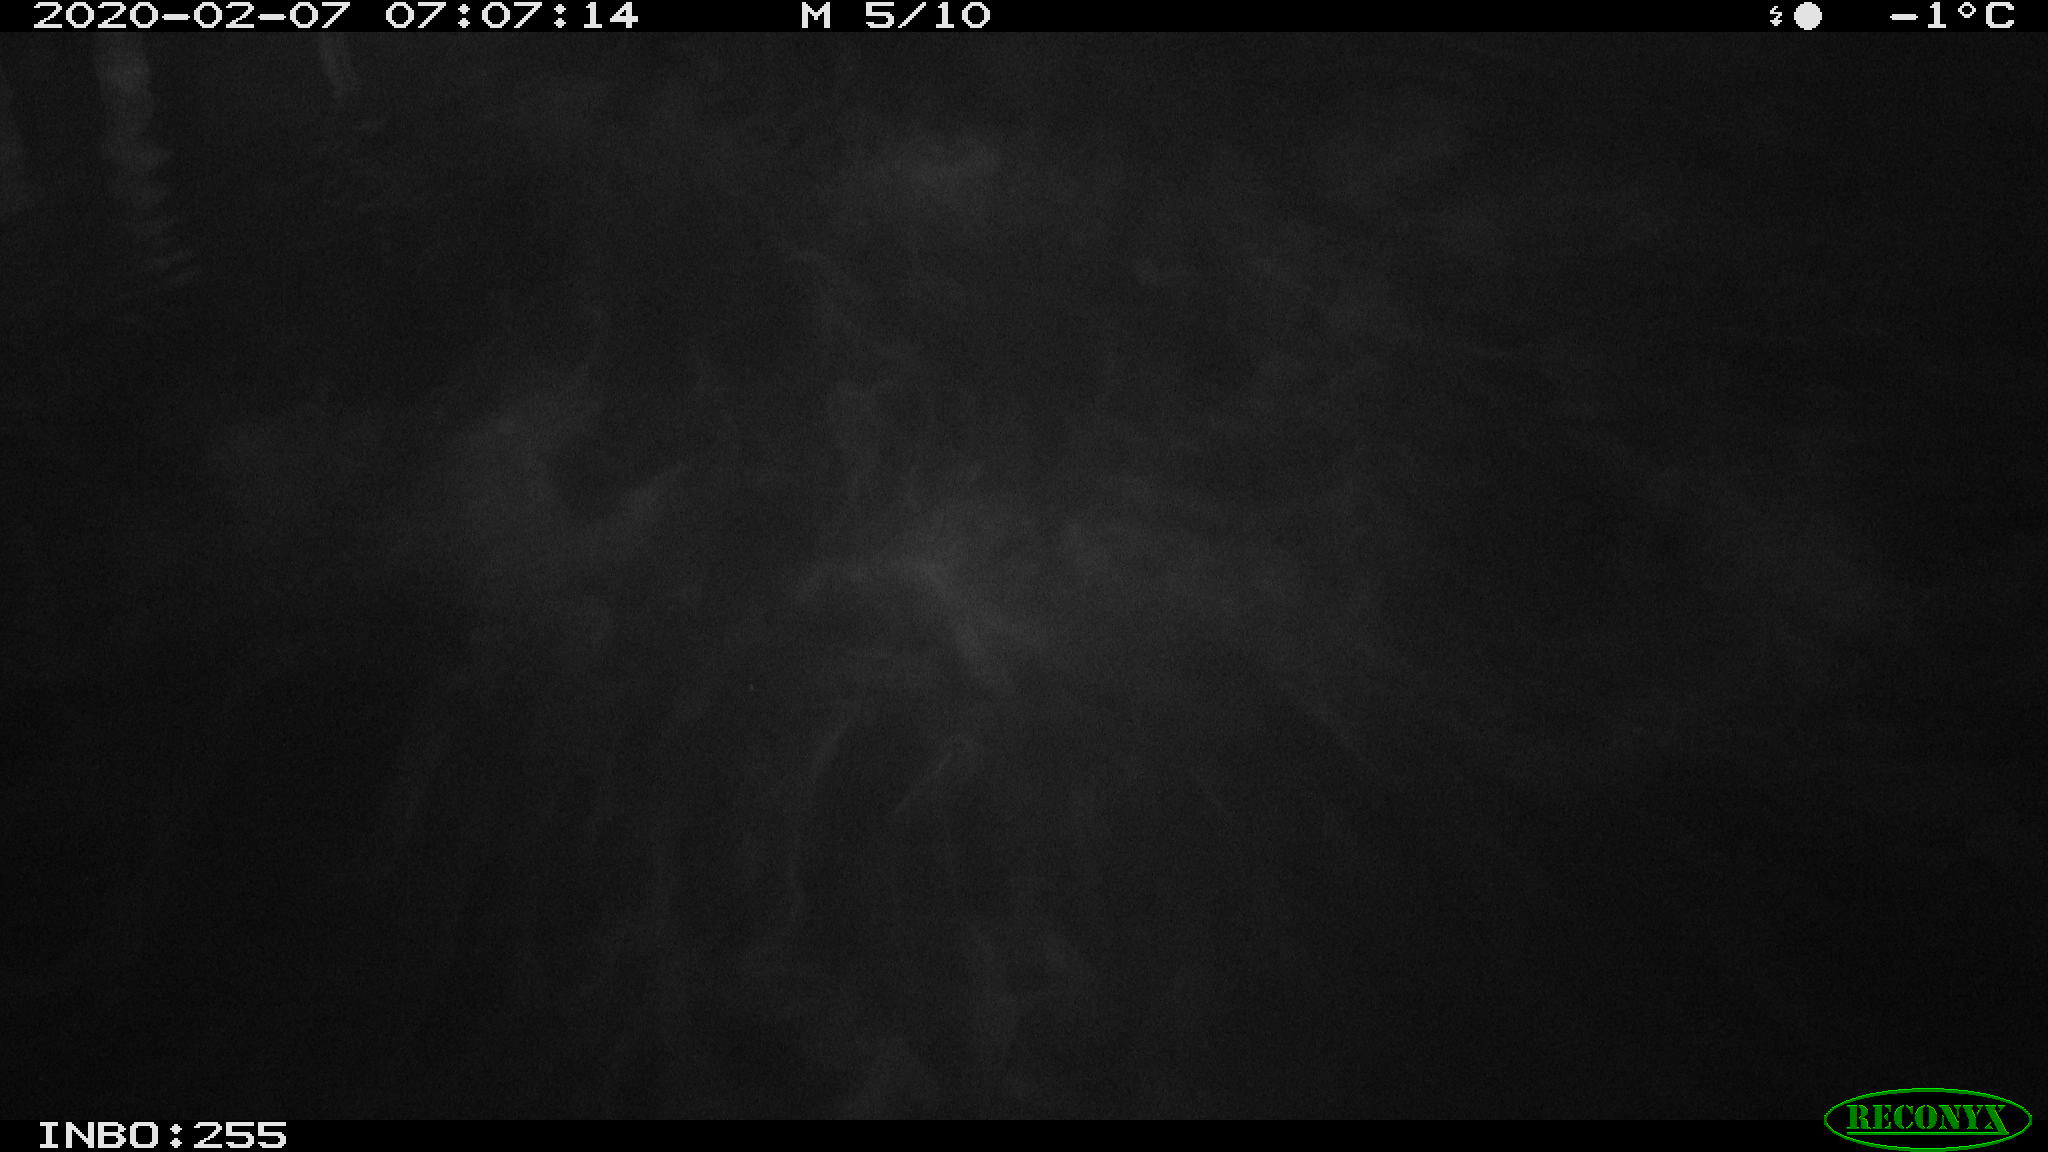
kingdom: Animalia
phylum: Chordata
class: Aves
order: Gruiformes
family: Rallidae
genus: Gallinula
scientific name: Gallinula chloropus
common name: Common moorhen
